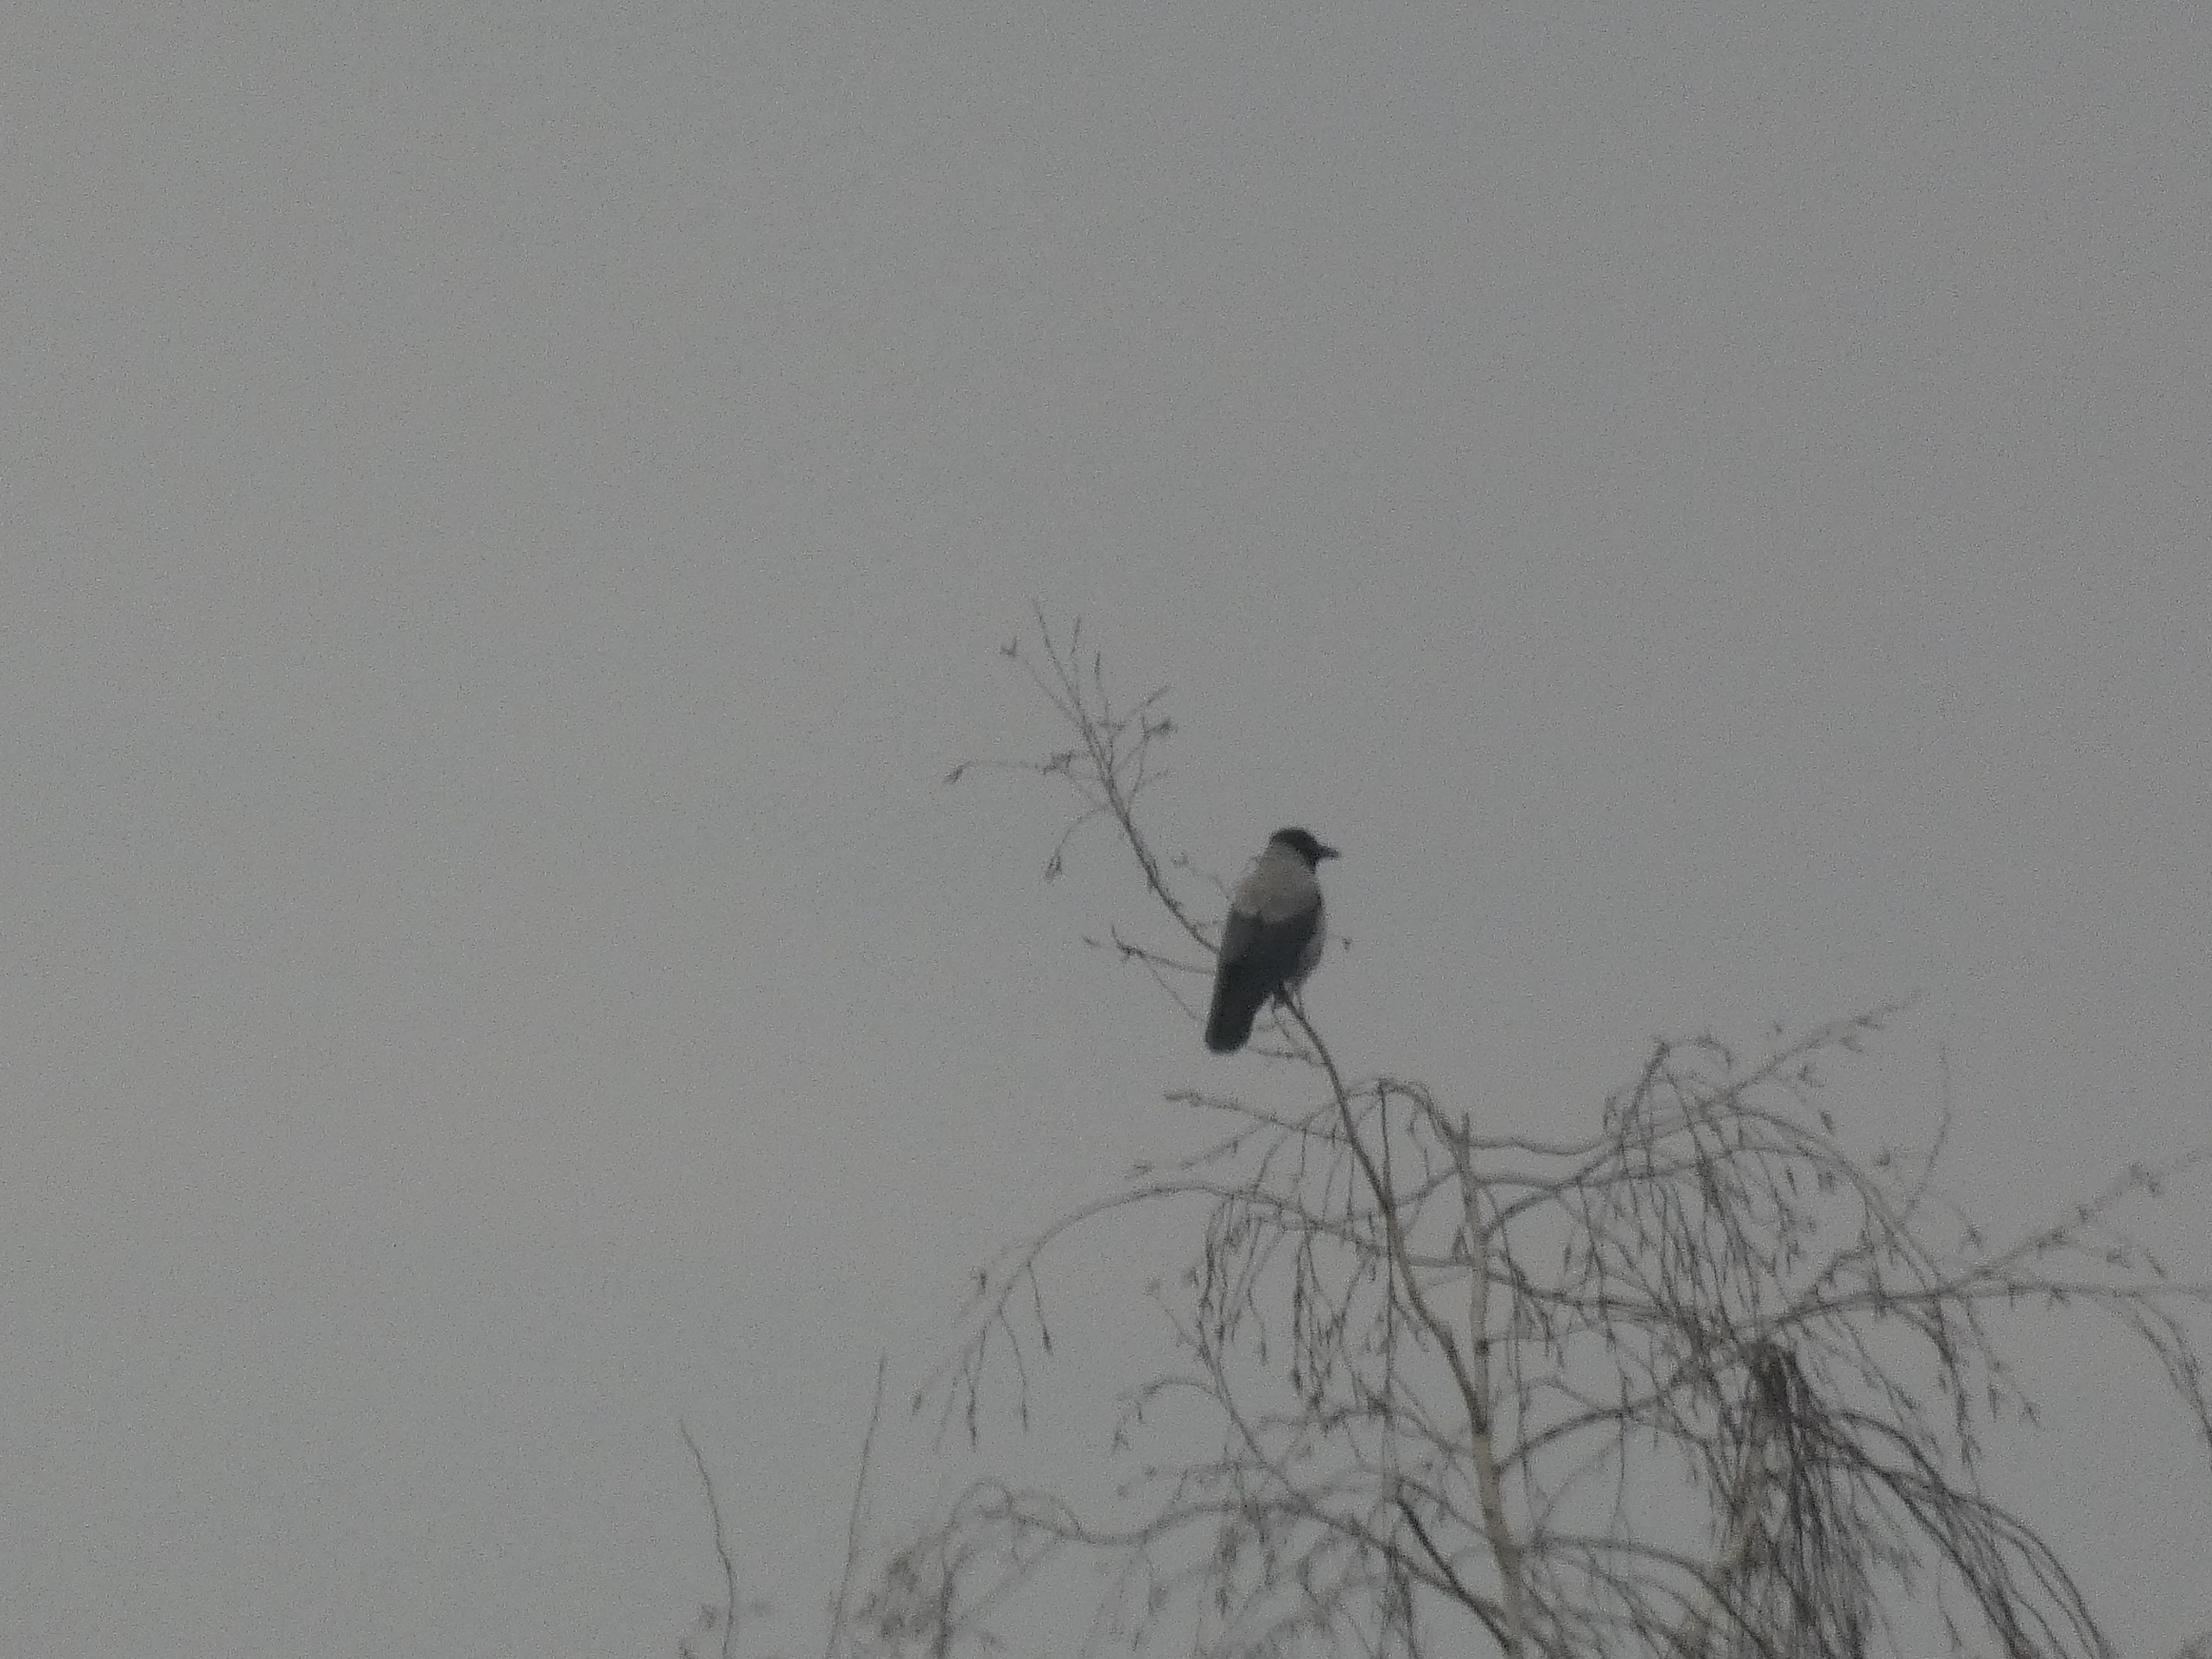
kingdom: Animalia
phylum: Chordata
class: Aves
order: Passeriformes
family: Corvidae
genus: Corvus
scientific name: Corvus cornix
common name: Gråkrage
